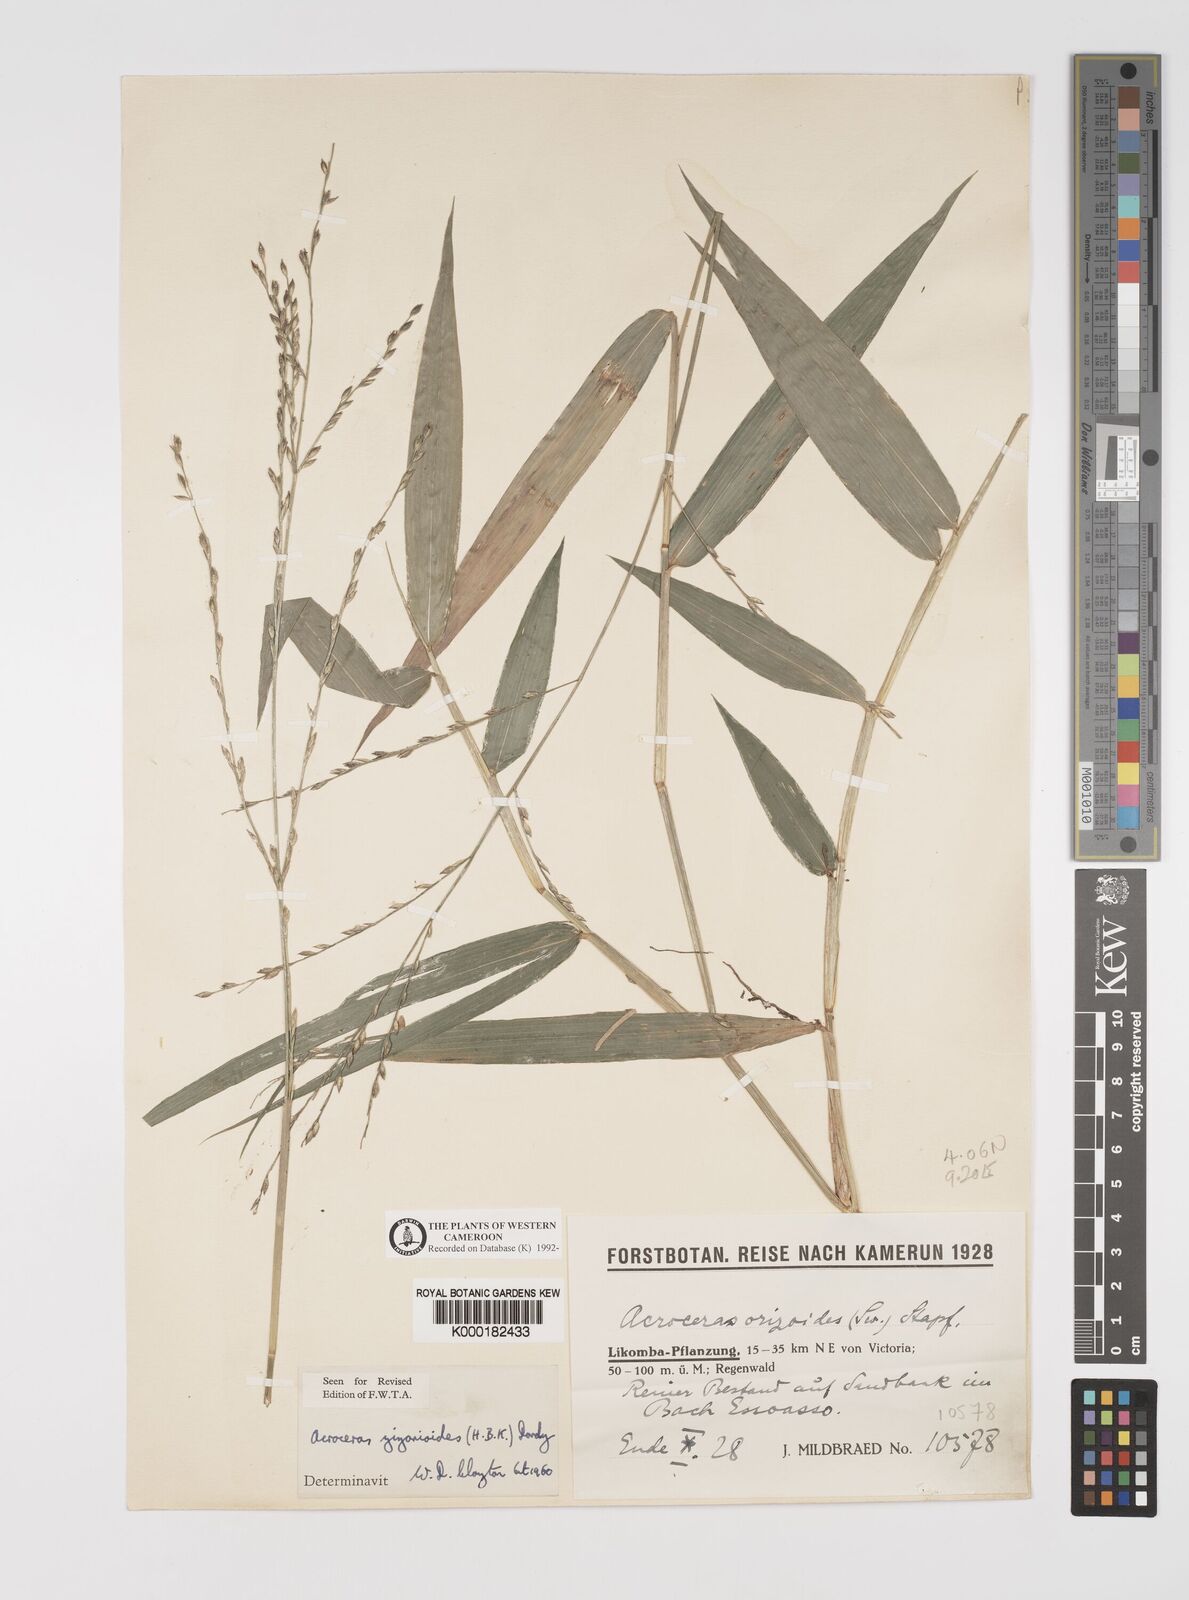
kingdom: Plantae
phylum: Tracheophyta
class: Liliopsida
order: Poales
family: Poaceae
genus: Acroceras
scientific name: Acroceras zizanioides
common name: Oat grass
